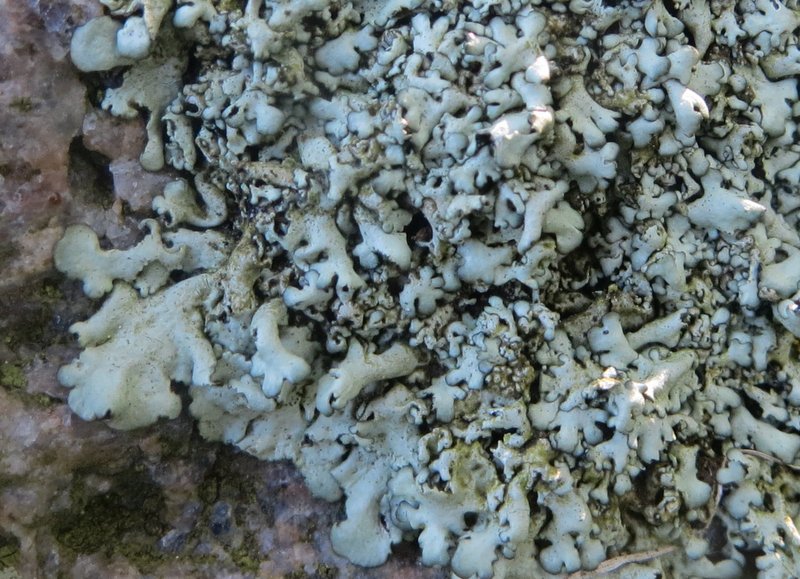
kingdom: Fungi
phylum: Ascomycota
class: Lecanoromycetes
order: Lecanorales
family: Parmeliaceae
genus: Xanthoparmelia
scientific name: Xanthoparmelia stenophylla
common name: Shingled rock shield
